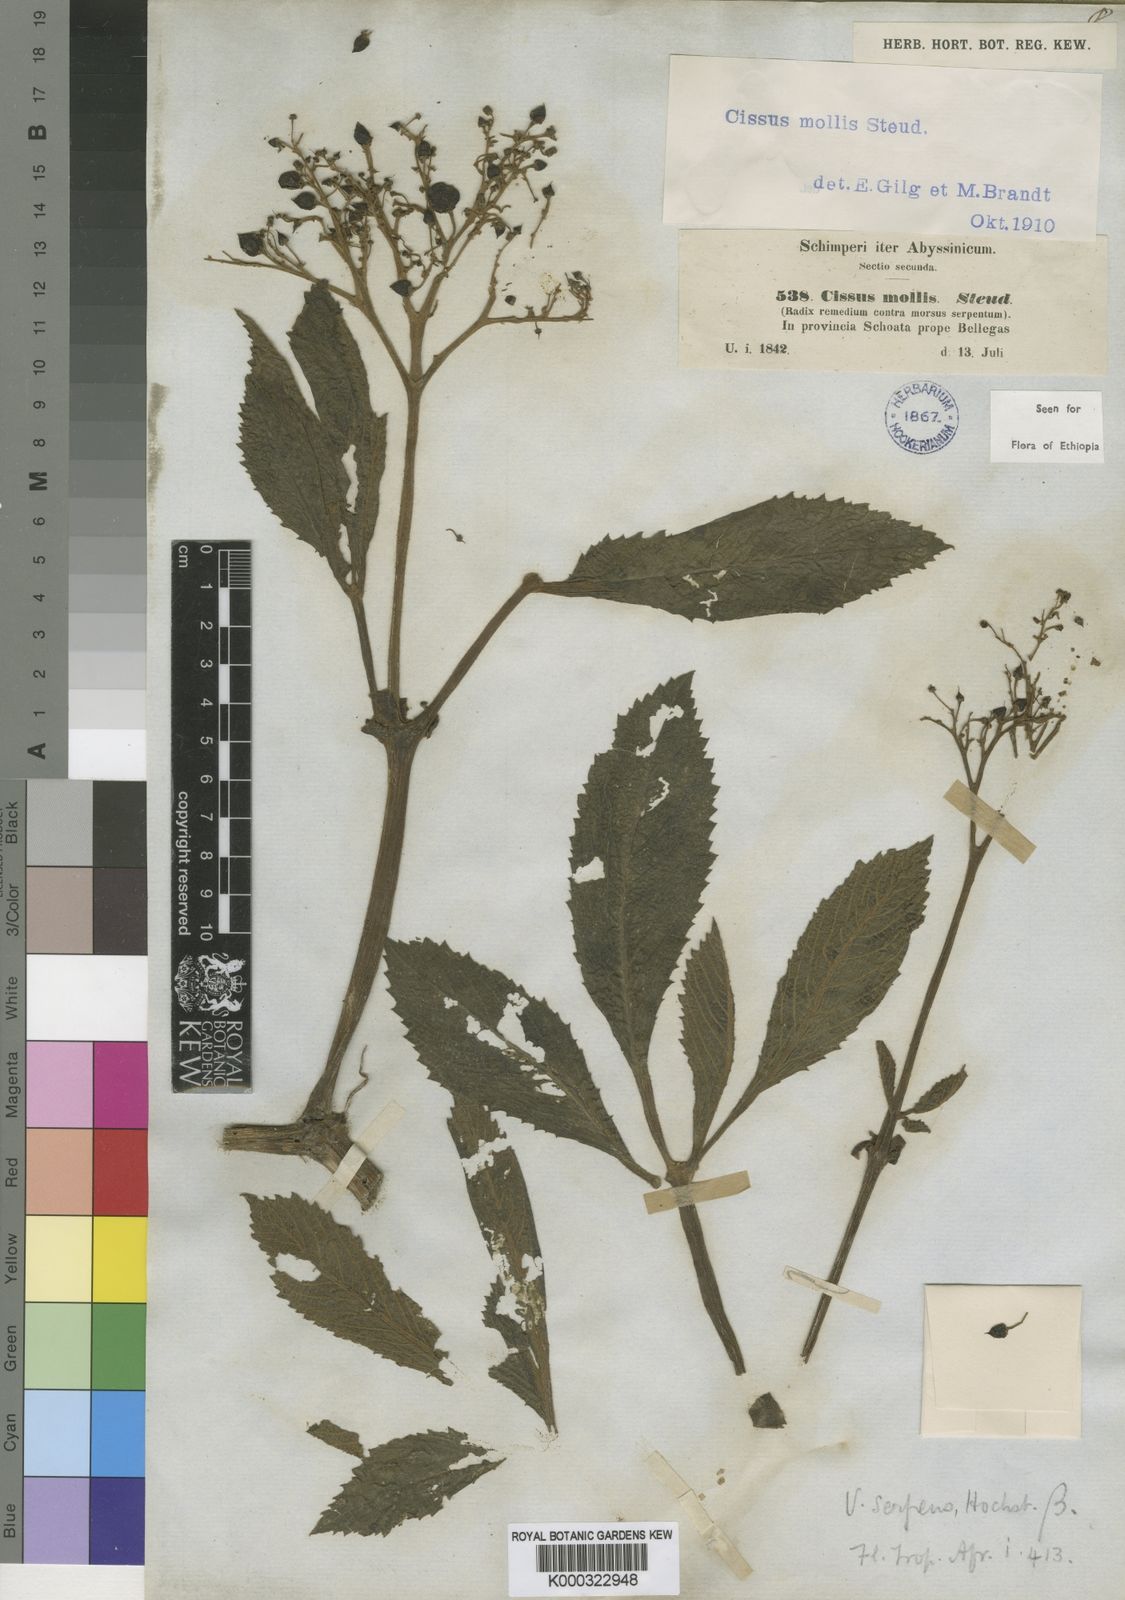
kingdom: Plantae
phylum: Tracheophyta
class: Magnoliopsida
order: Vitales
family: Vitaceae
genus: Cyphostemma
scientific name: Cyphostemma molle
